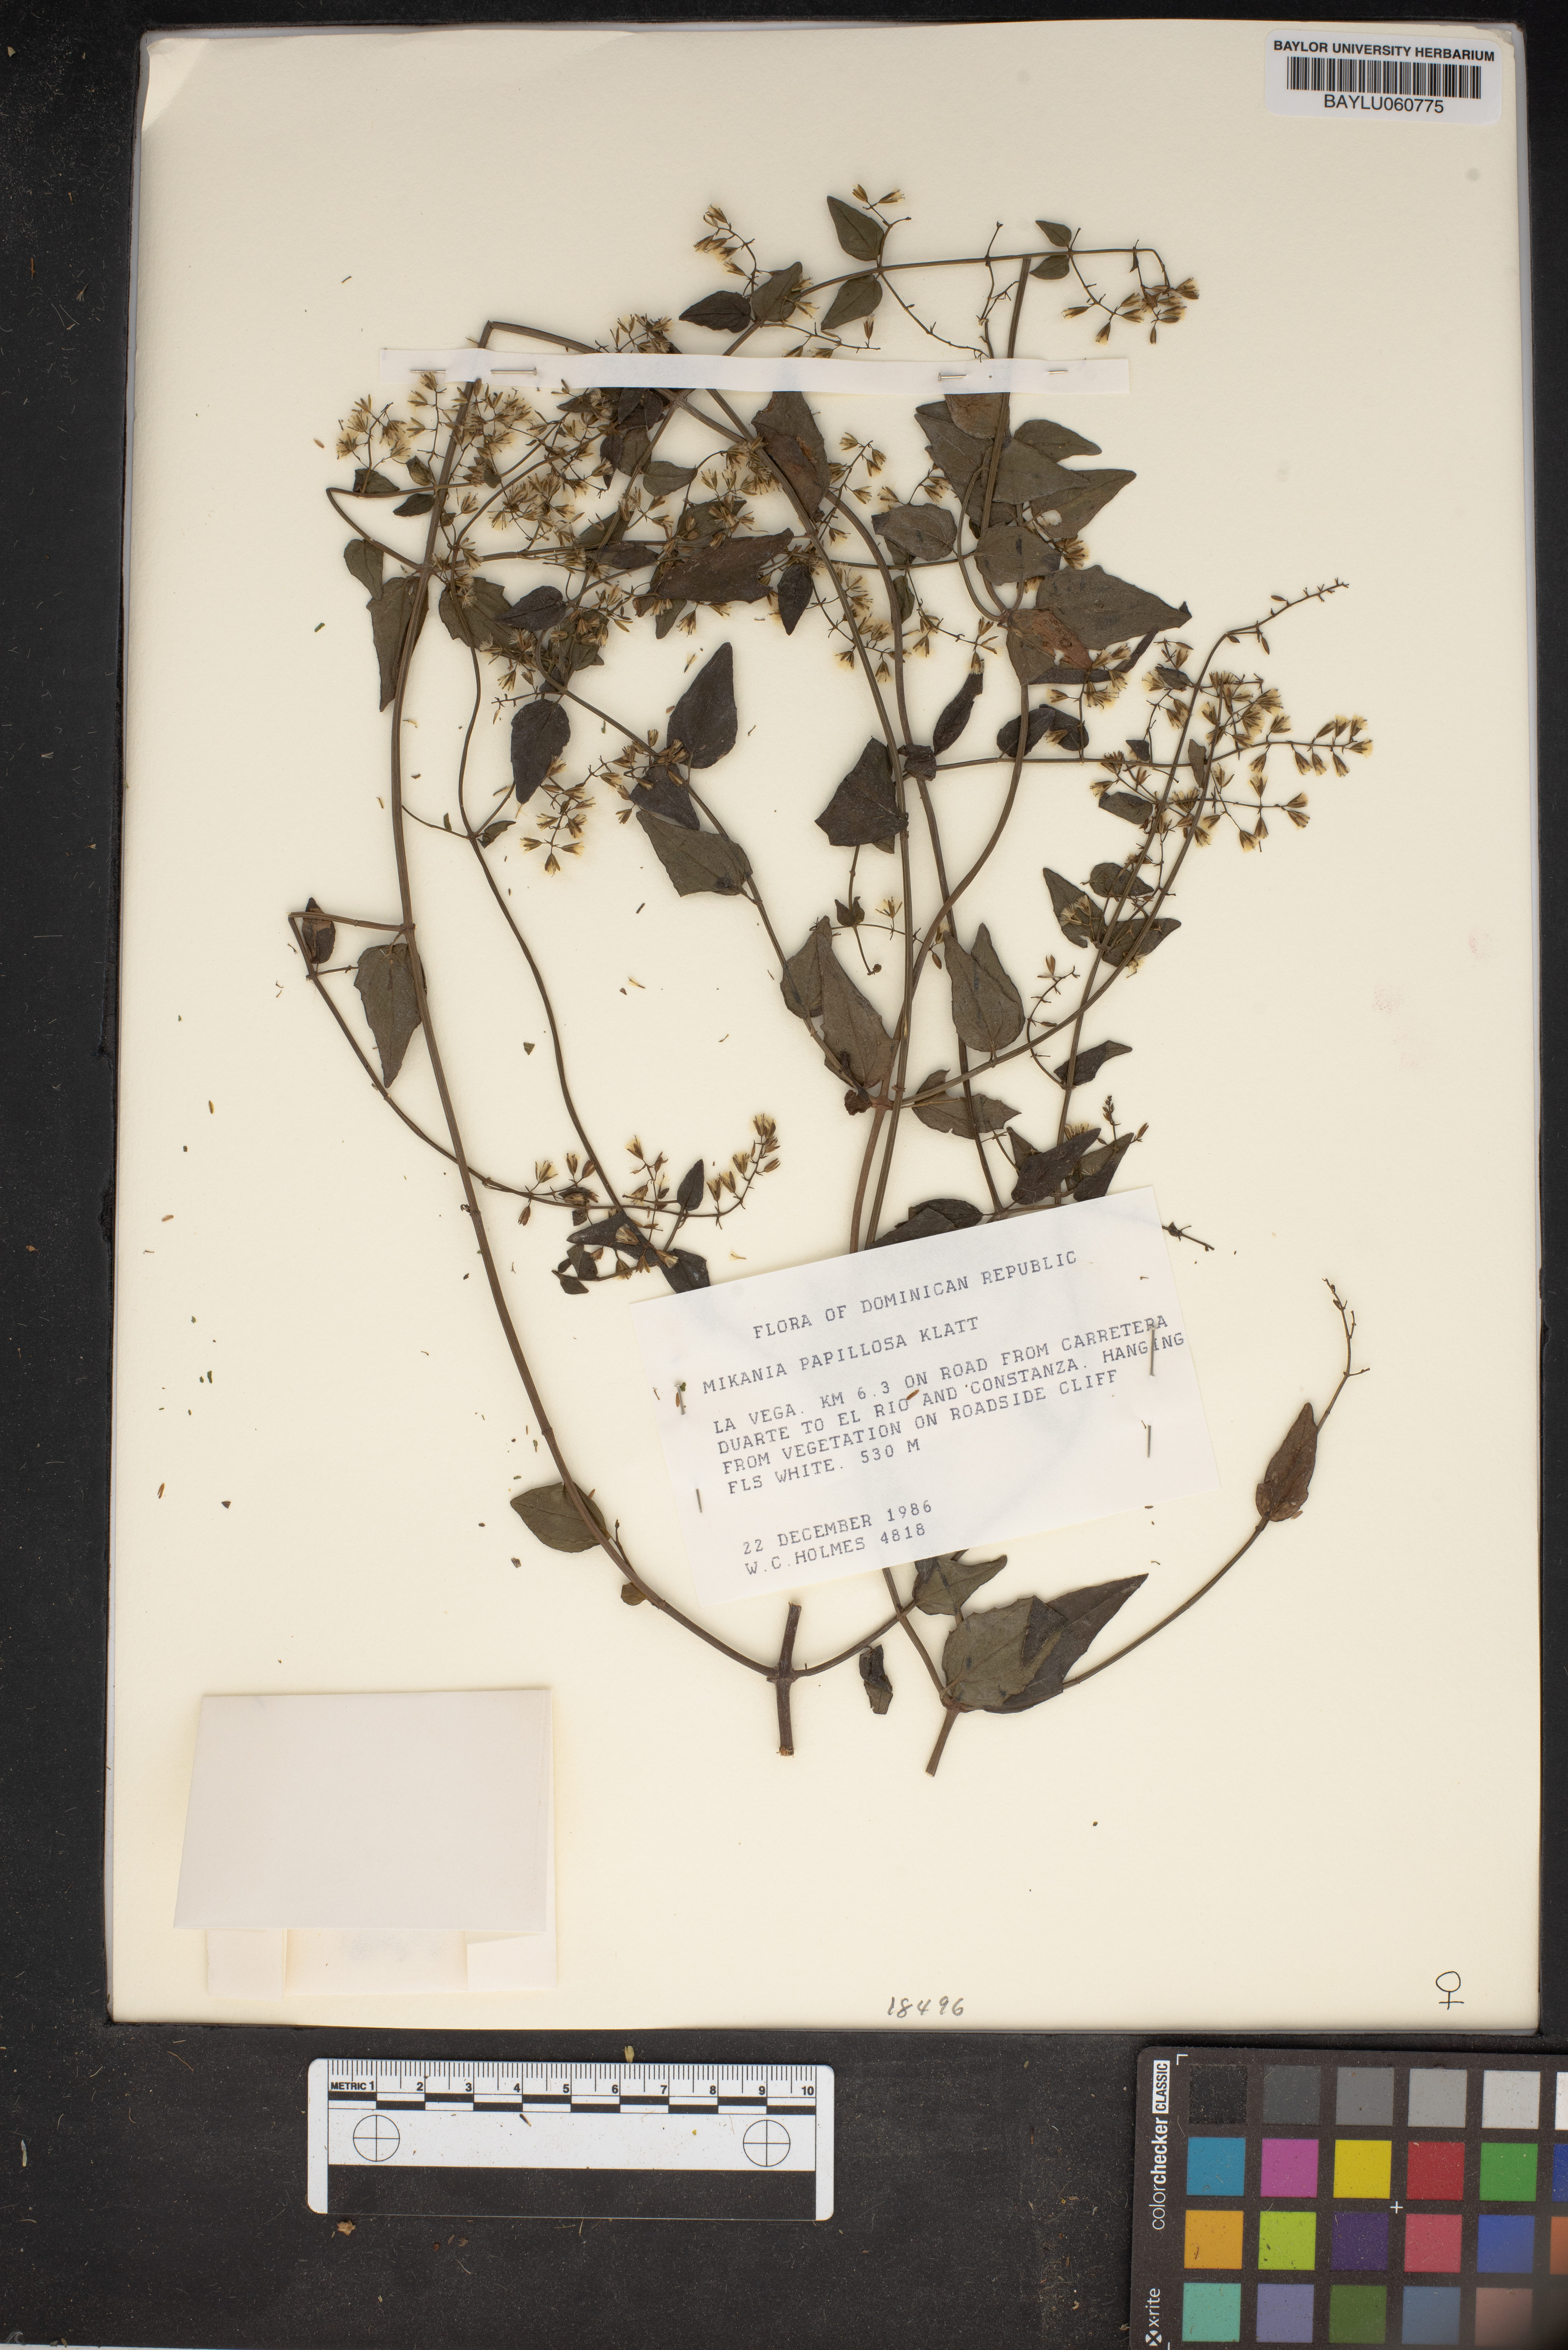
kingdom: Plantae
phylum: Tracheophyta
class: Magnoliopsida
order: Asterales
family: Asteraceae
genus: Mikania
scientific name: Mikania papillosa
